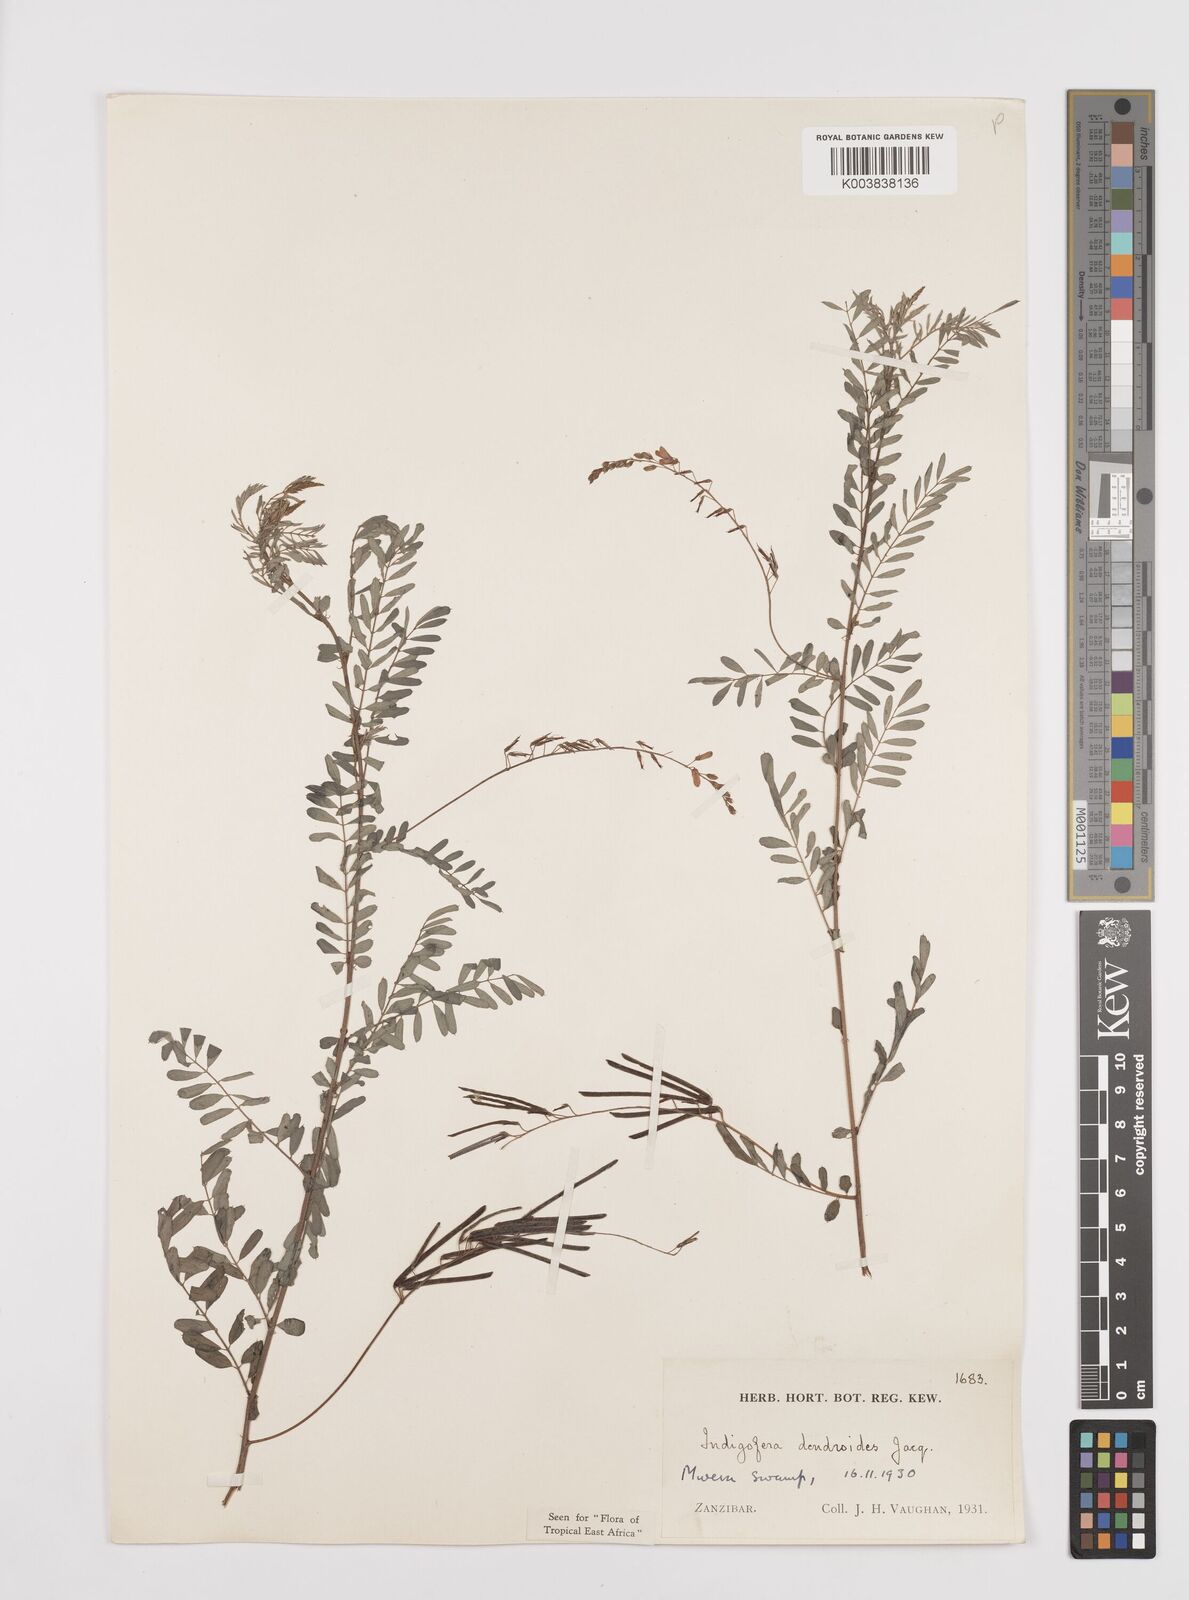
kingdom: Plantae
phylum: Tracheophyta
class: Magnoliopsida
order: Fabales
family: Fabaceae
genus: Indigofera
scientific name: Indigofera dendroides
